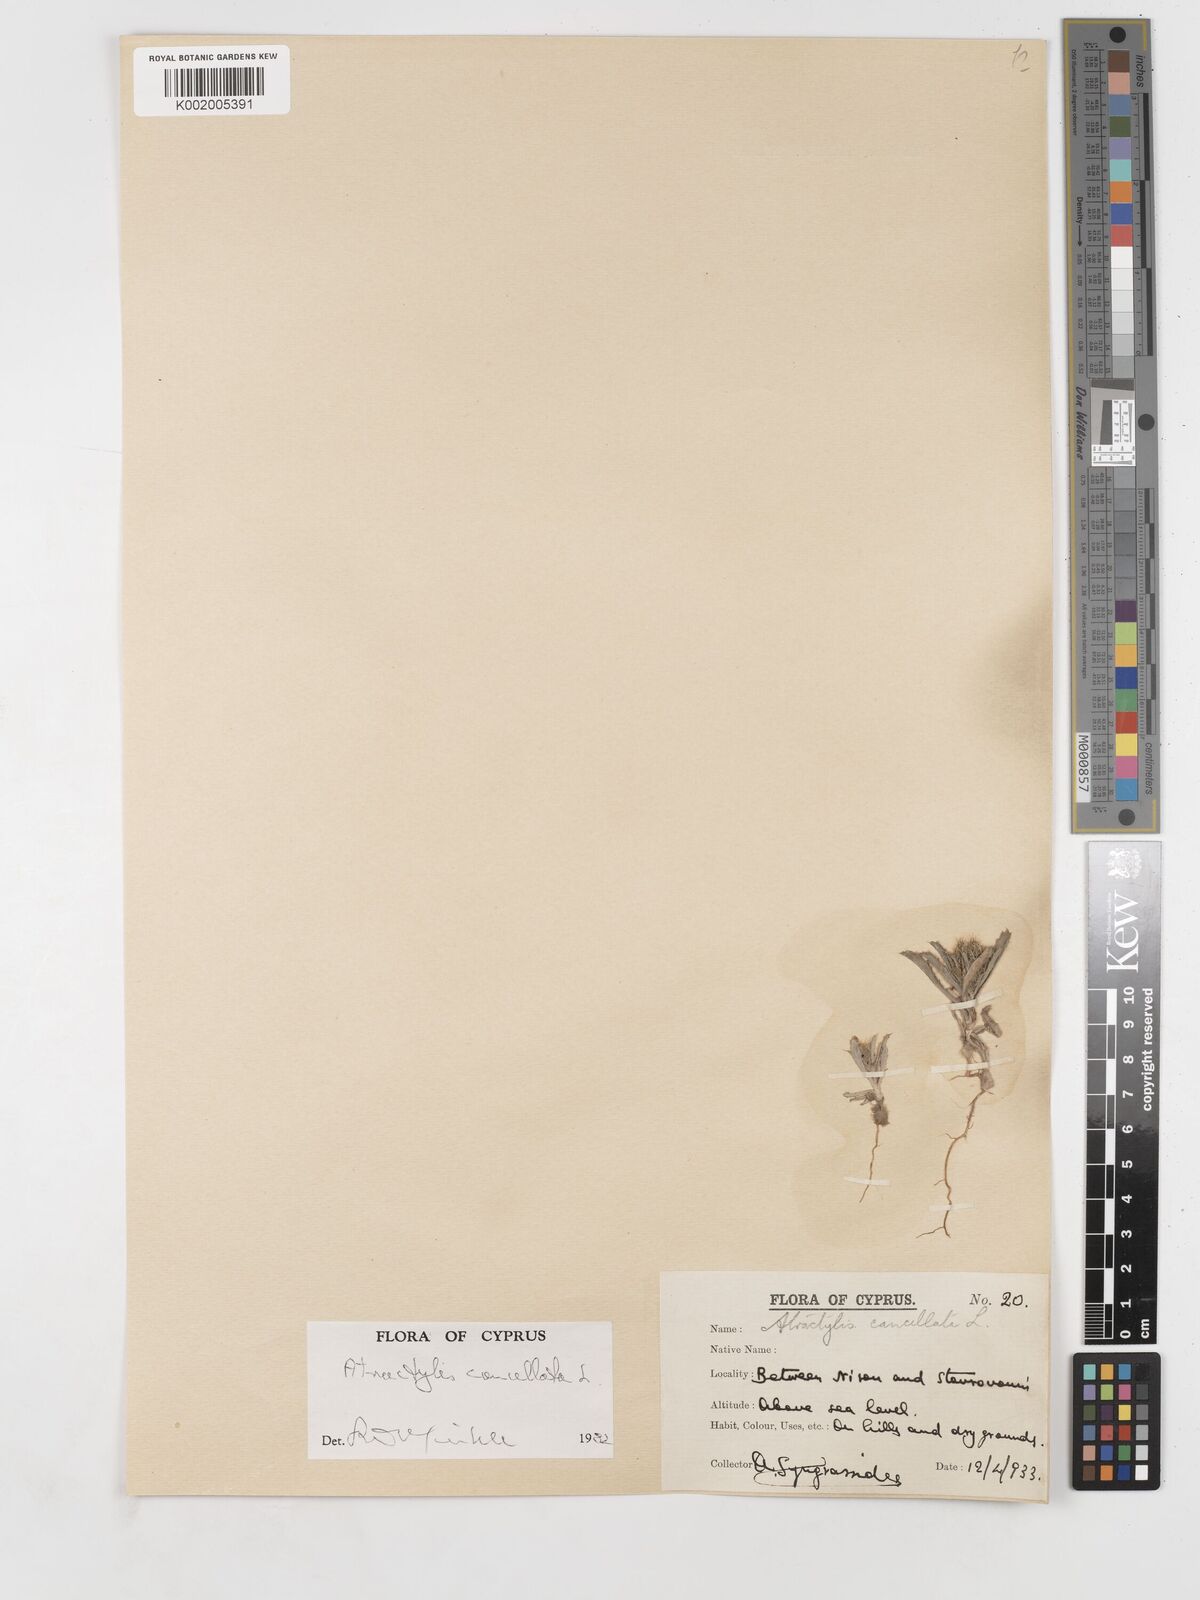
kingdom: Plantae
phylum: Tracheophyta
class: Magnoliopsida
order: Asterales
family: Asteraceae
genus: Atractylis
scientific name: Atractylis cancellata
